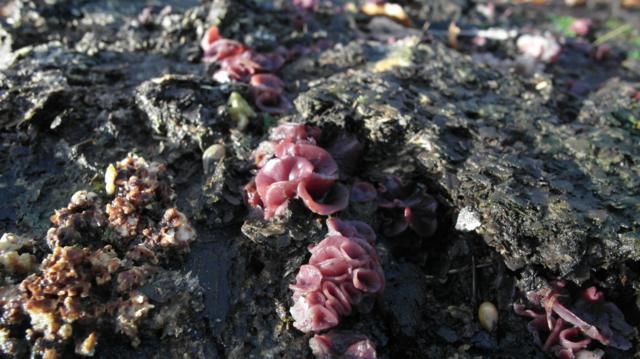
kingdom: Fungi
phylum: Ascomycota
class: Leotiomycetes
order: Helotiales
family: Gelatinodiscaceae
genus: Ascocoryne
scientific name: Ascocoryne cylichnium
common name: stor sejskive
